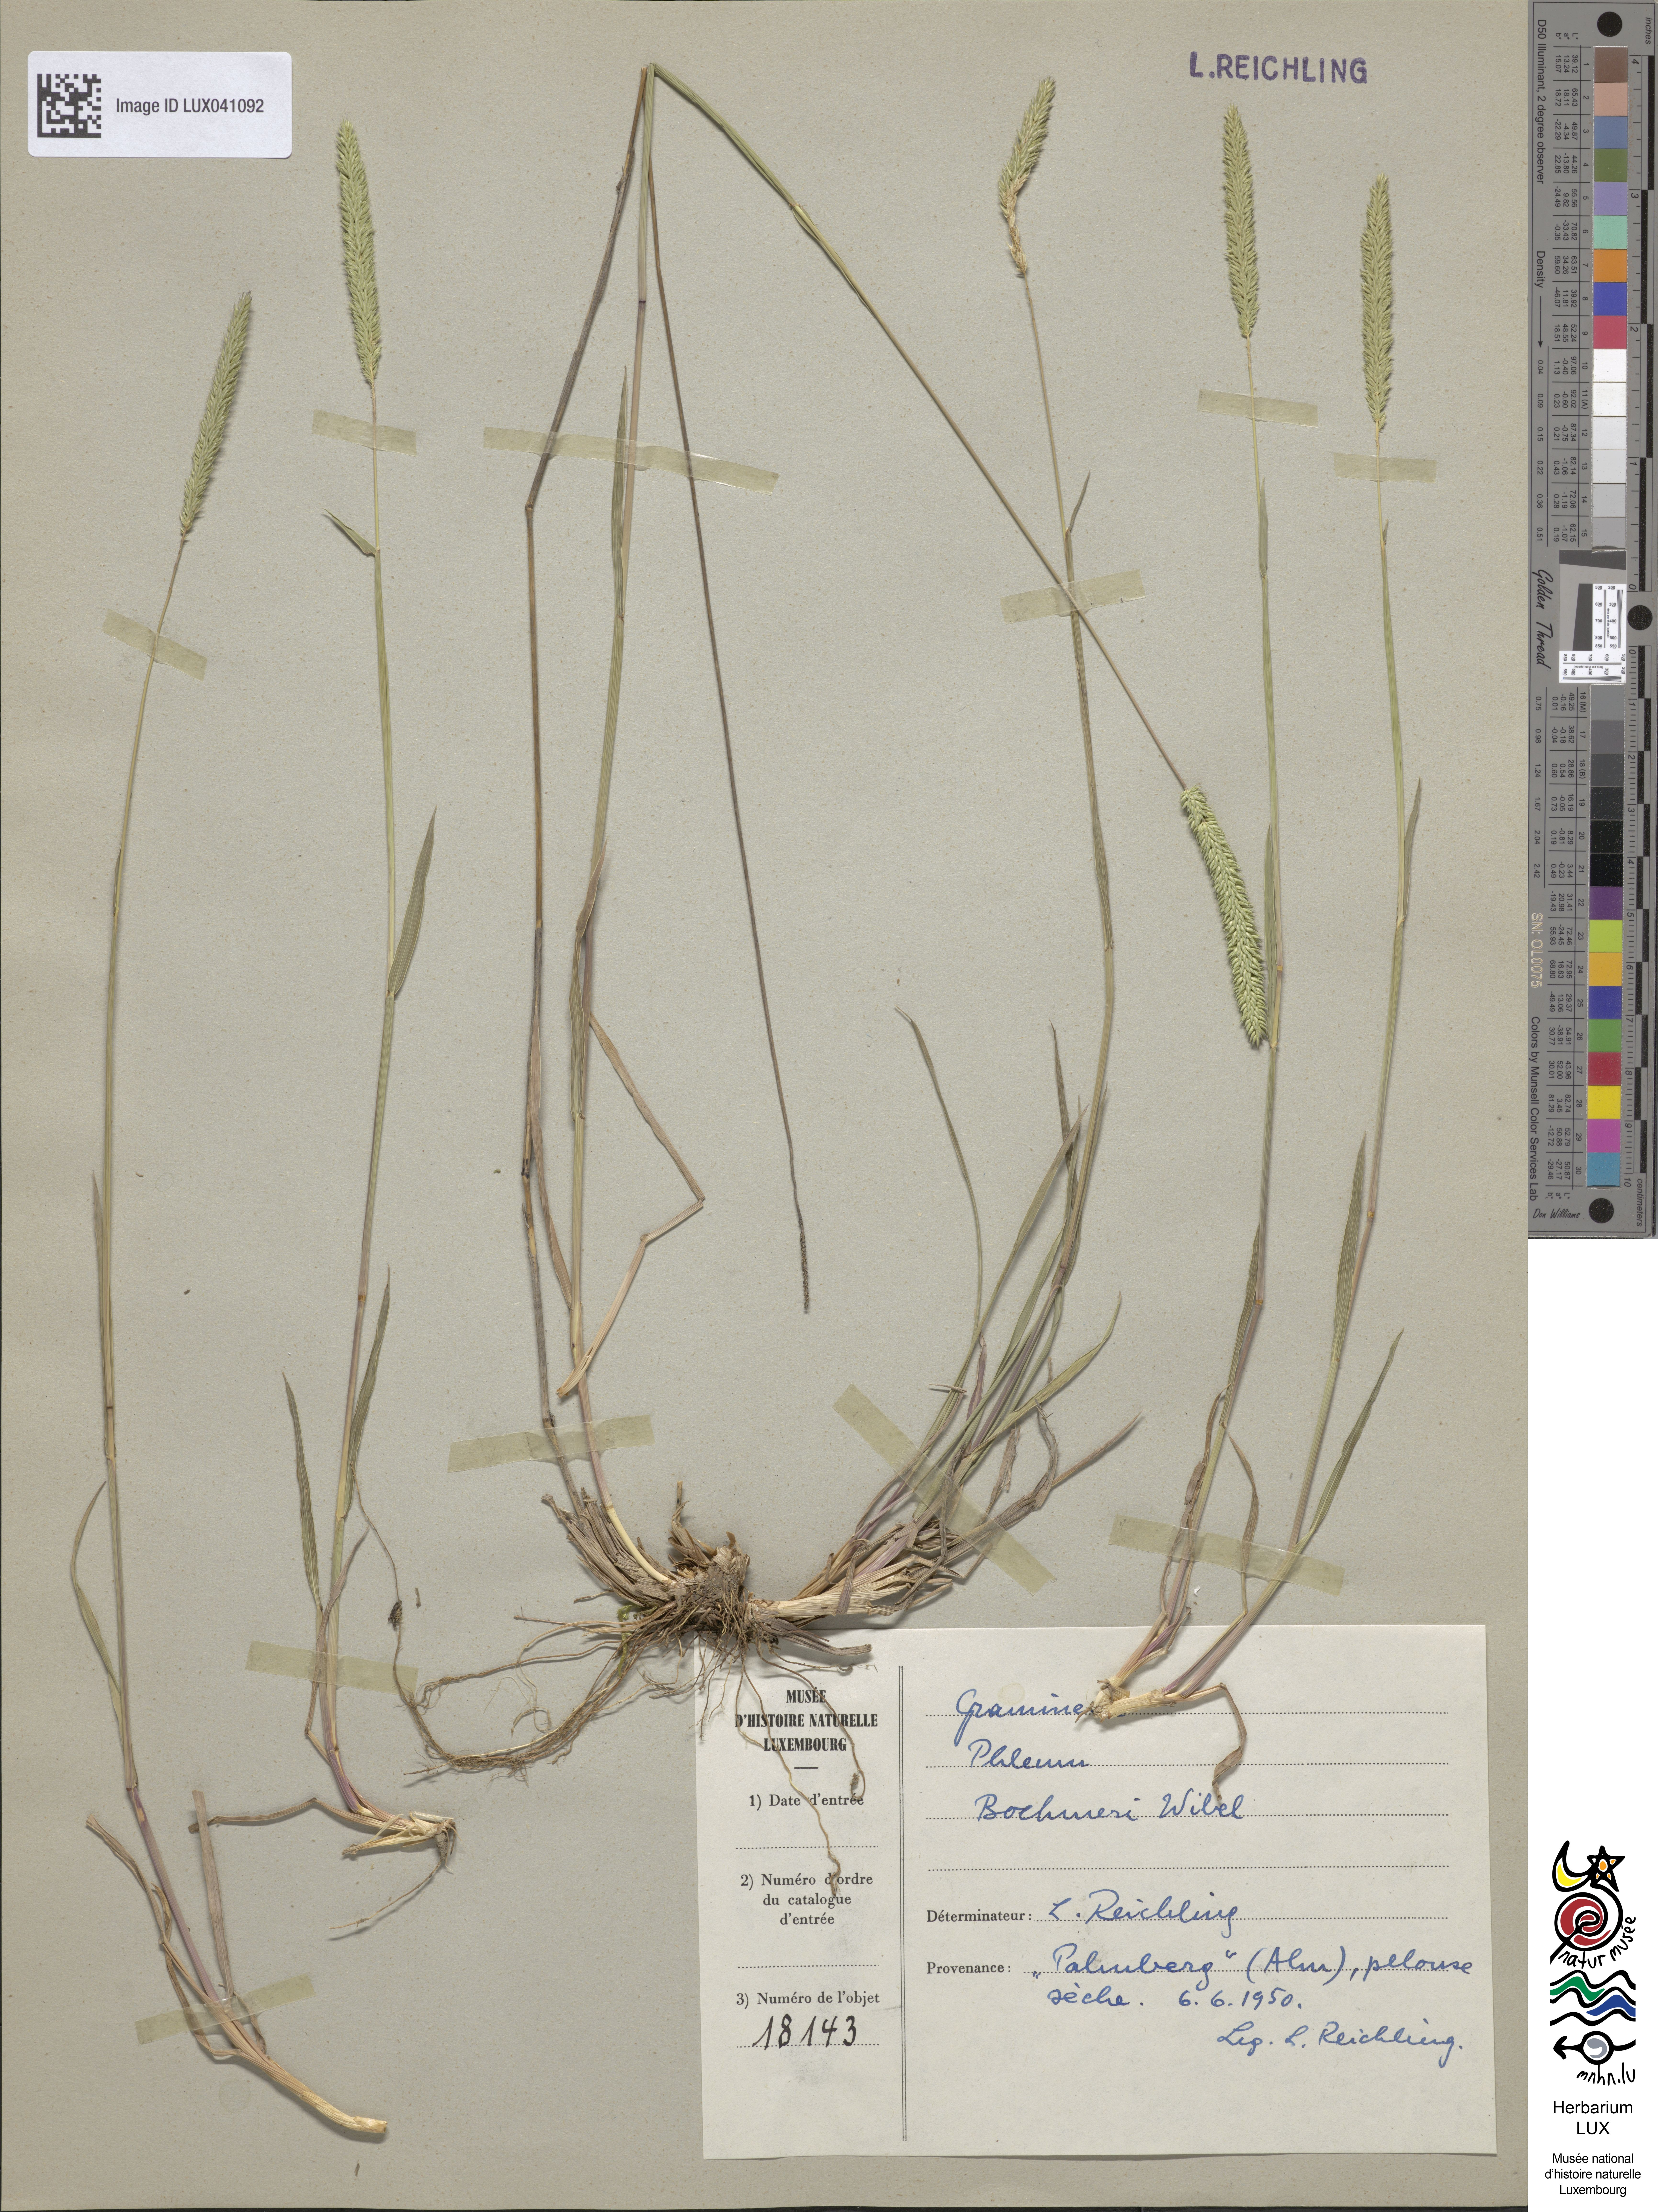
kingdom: Plantae
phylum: Tracheophyta
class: Liliopsida
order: Poales
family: Poaceae
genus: Phleum
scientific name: Phleum phleoides
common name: Purple-stem cat's-tail
